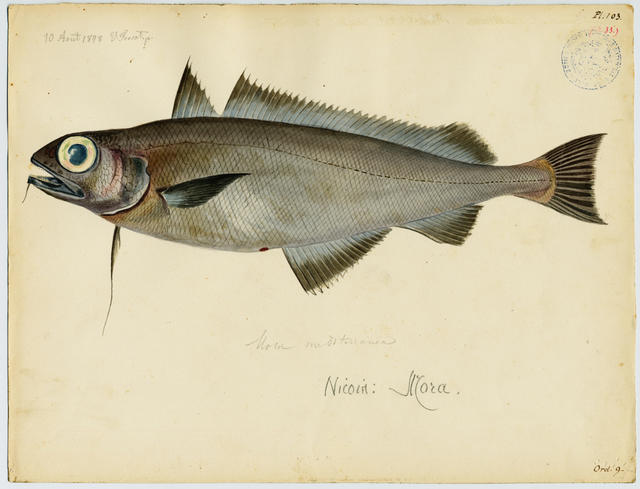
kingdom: Animalia
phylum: Chordata
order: Gadiformes
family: Moridae
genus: Mora
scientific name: Mora moro
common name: Ribaldo
